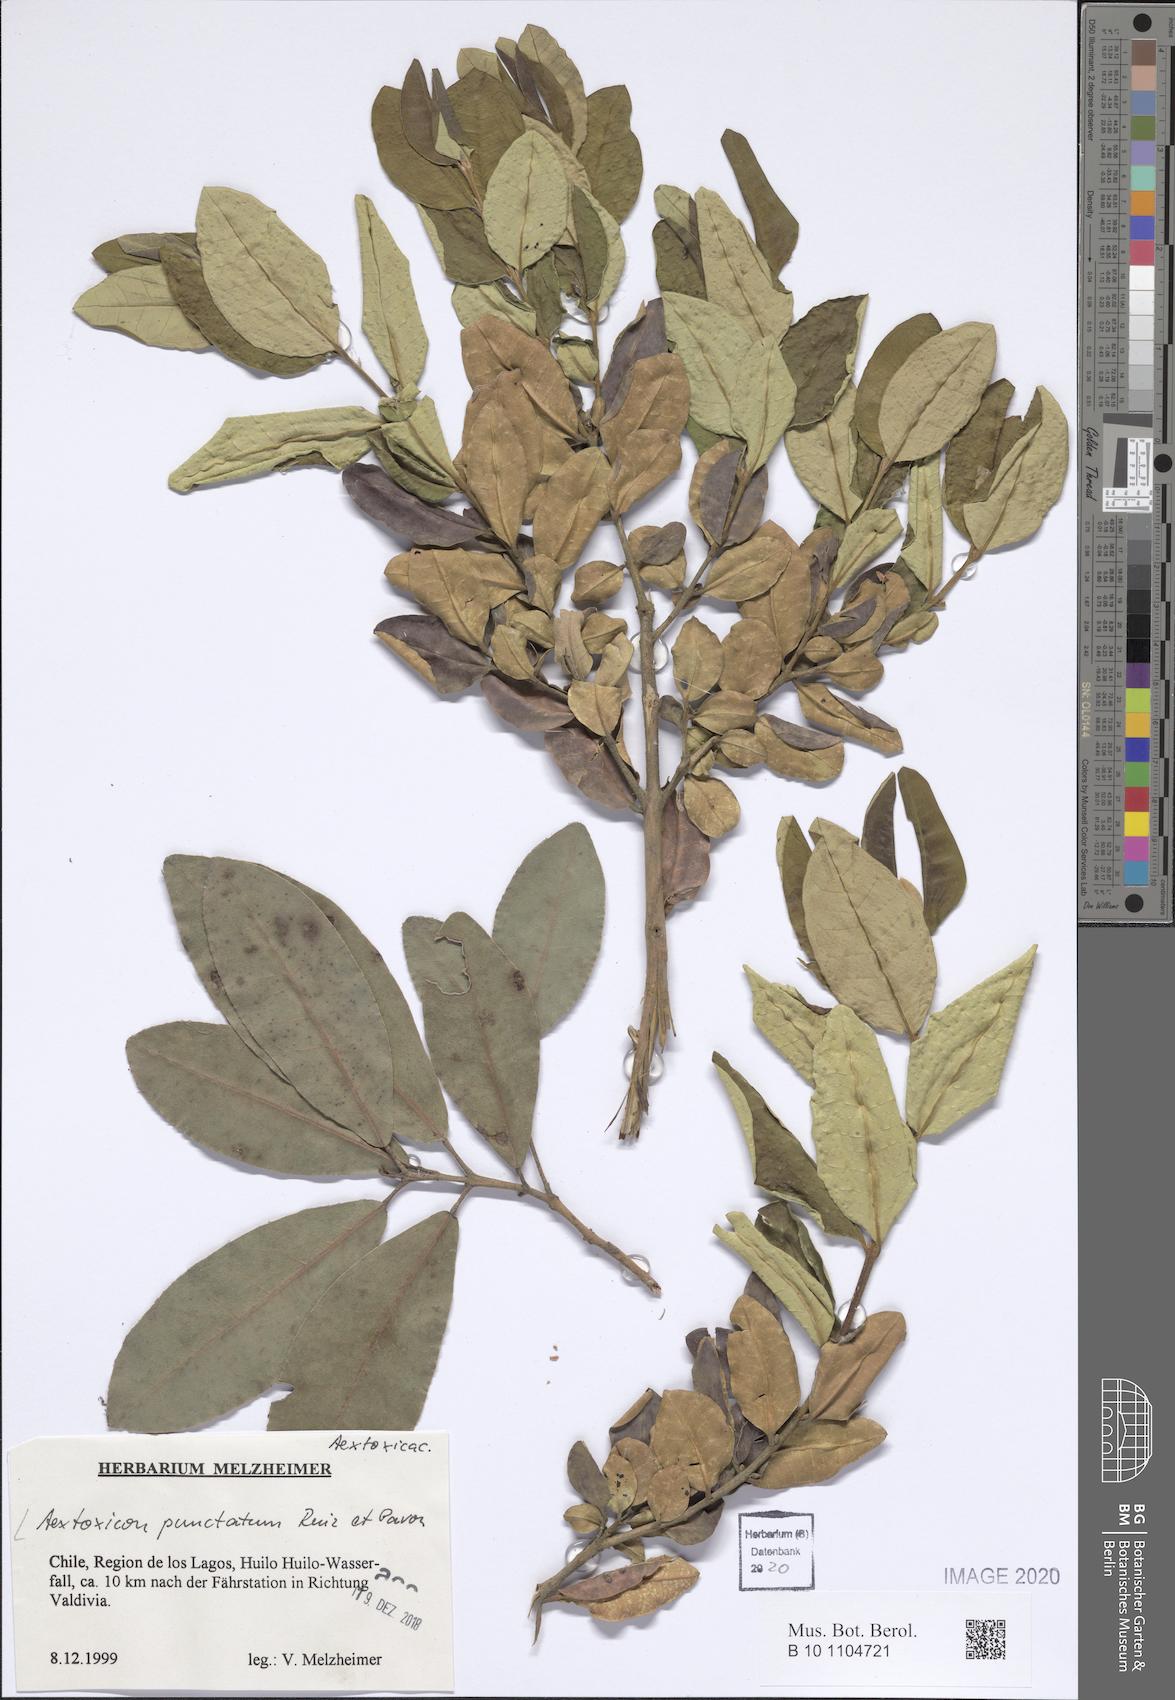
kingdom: Plantae
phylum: Tracheophyta
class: Magnoliopsida
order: Berberidopsidales
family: Aextoxicaceae
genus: Aextoxicon
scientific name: Aextoxicon punctatum
